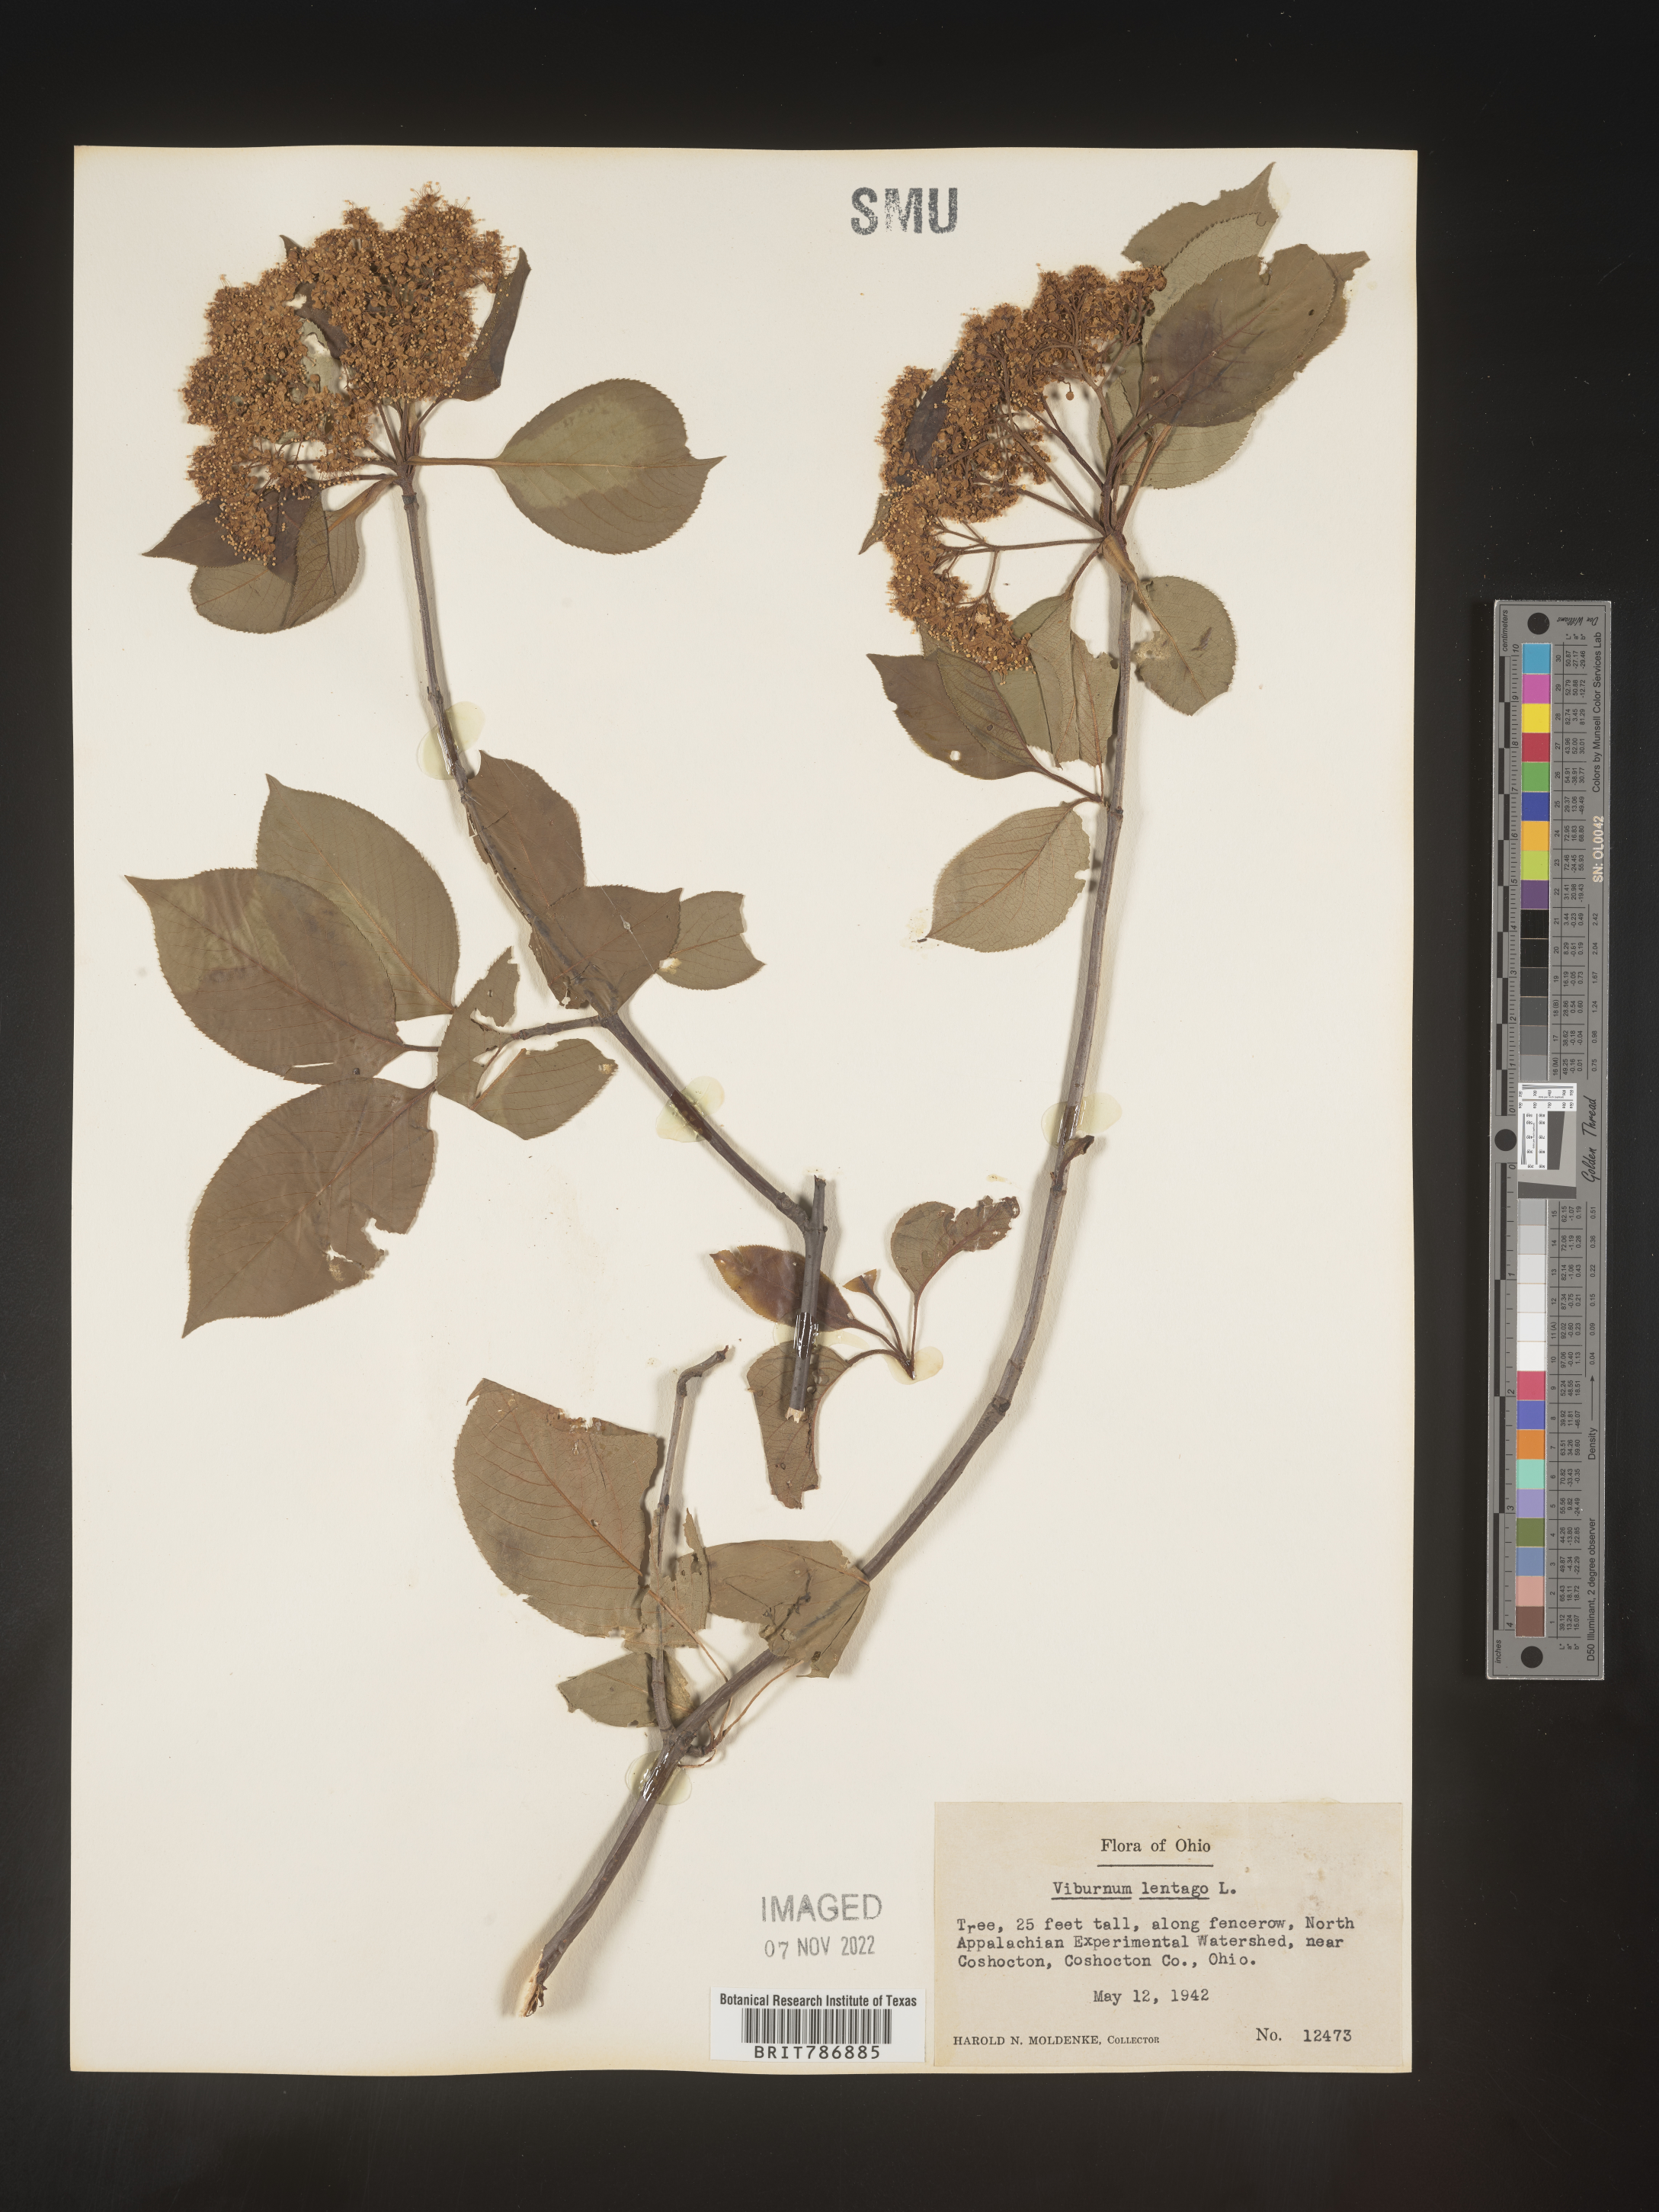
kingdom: Plantae
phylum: Tracheophyta
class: Magnoliopsida
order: Dipsacales
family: Viburnaceae
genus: Viburnum
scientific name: Viburnum lentago
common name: Black haw
